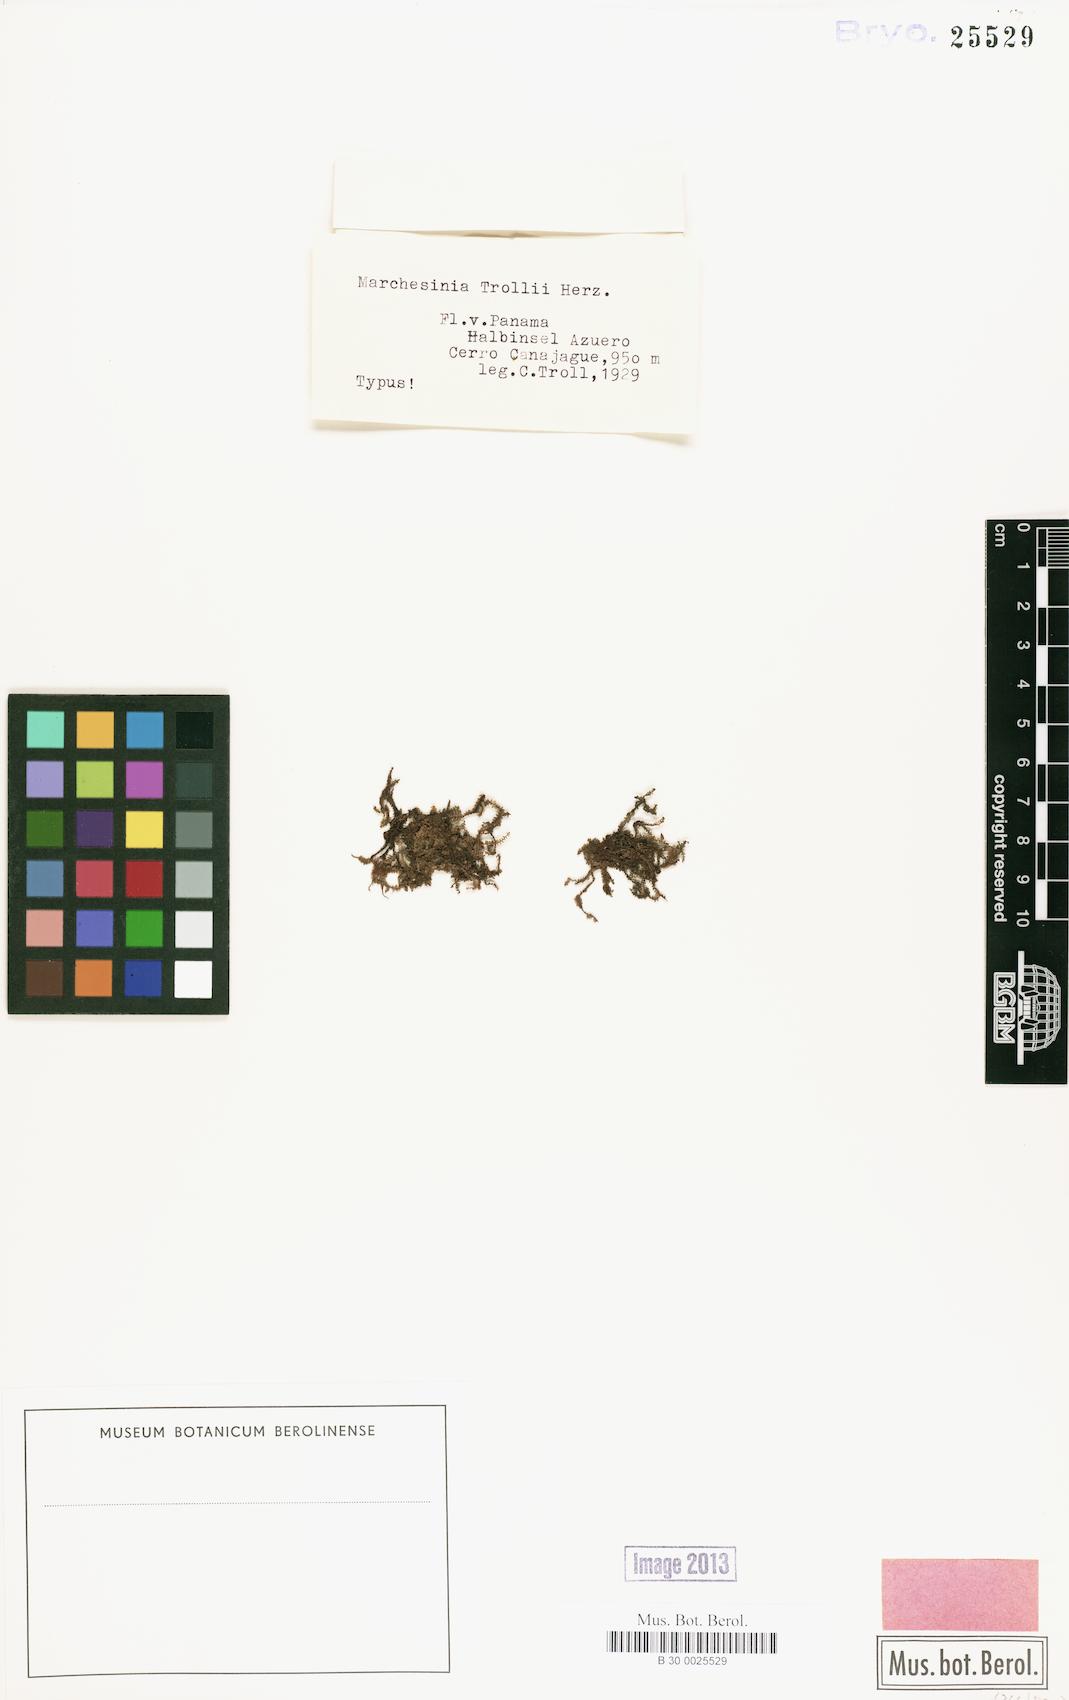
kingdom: Plantae
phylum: Marchantiophyta
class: Jungermanniopsida
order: Porellales
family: Lejeuneaceae
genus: Marchesinia
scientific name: Marchesinia brachiata
